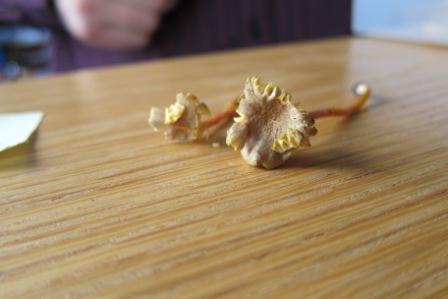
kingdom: Fungi
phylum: Basidiomycota
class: Agaricomycetes
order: Agaricales
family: Hygrophoraceae
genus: Hygrocybe
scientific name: Hygrocybe cantharellus
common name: kantarel-vokshat
